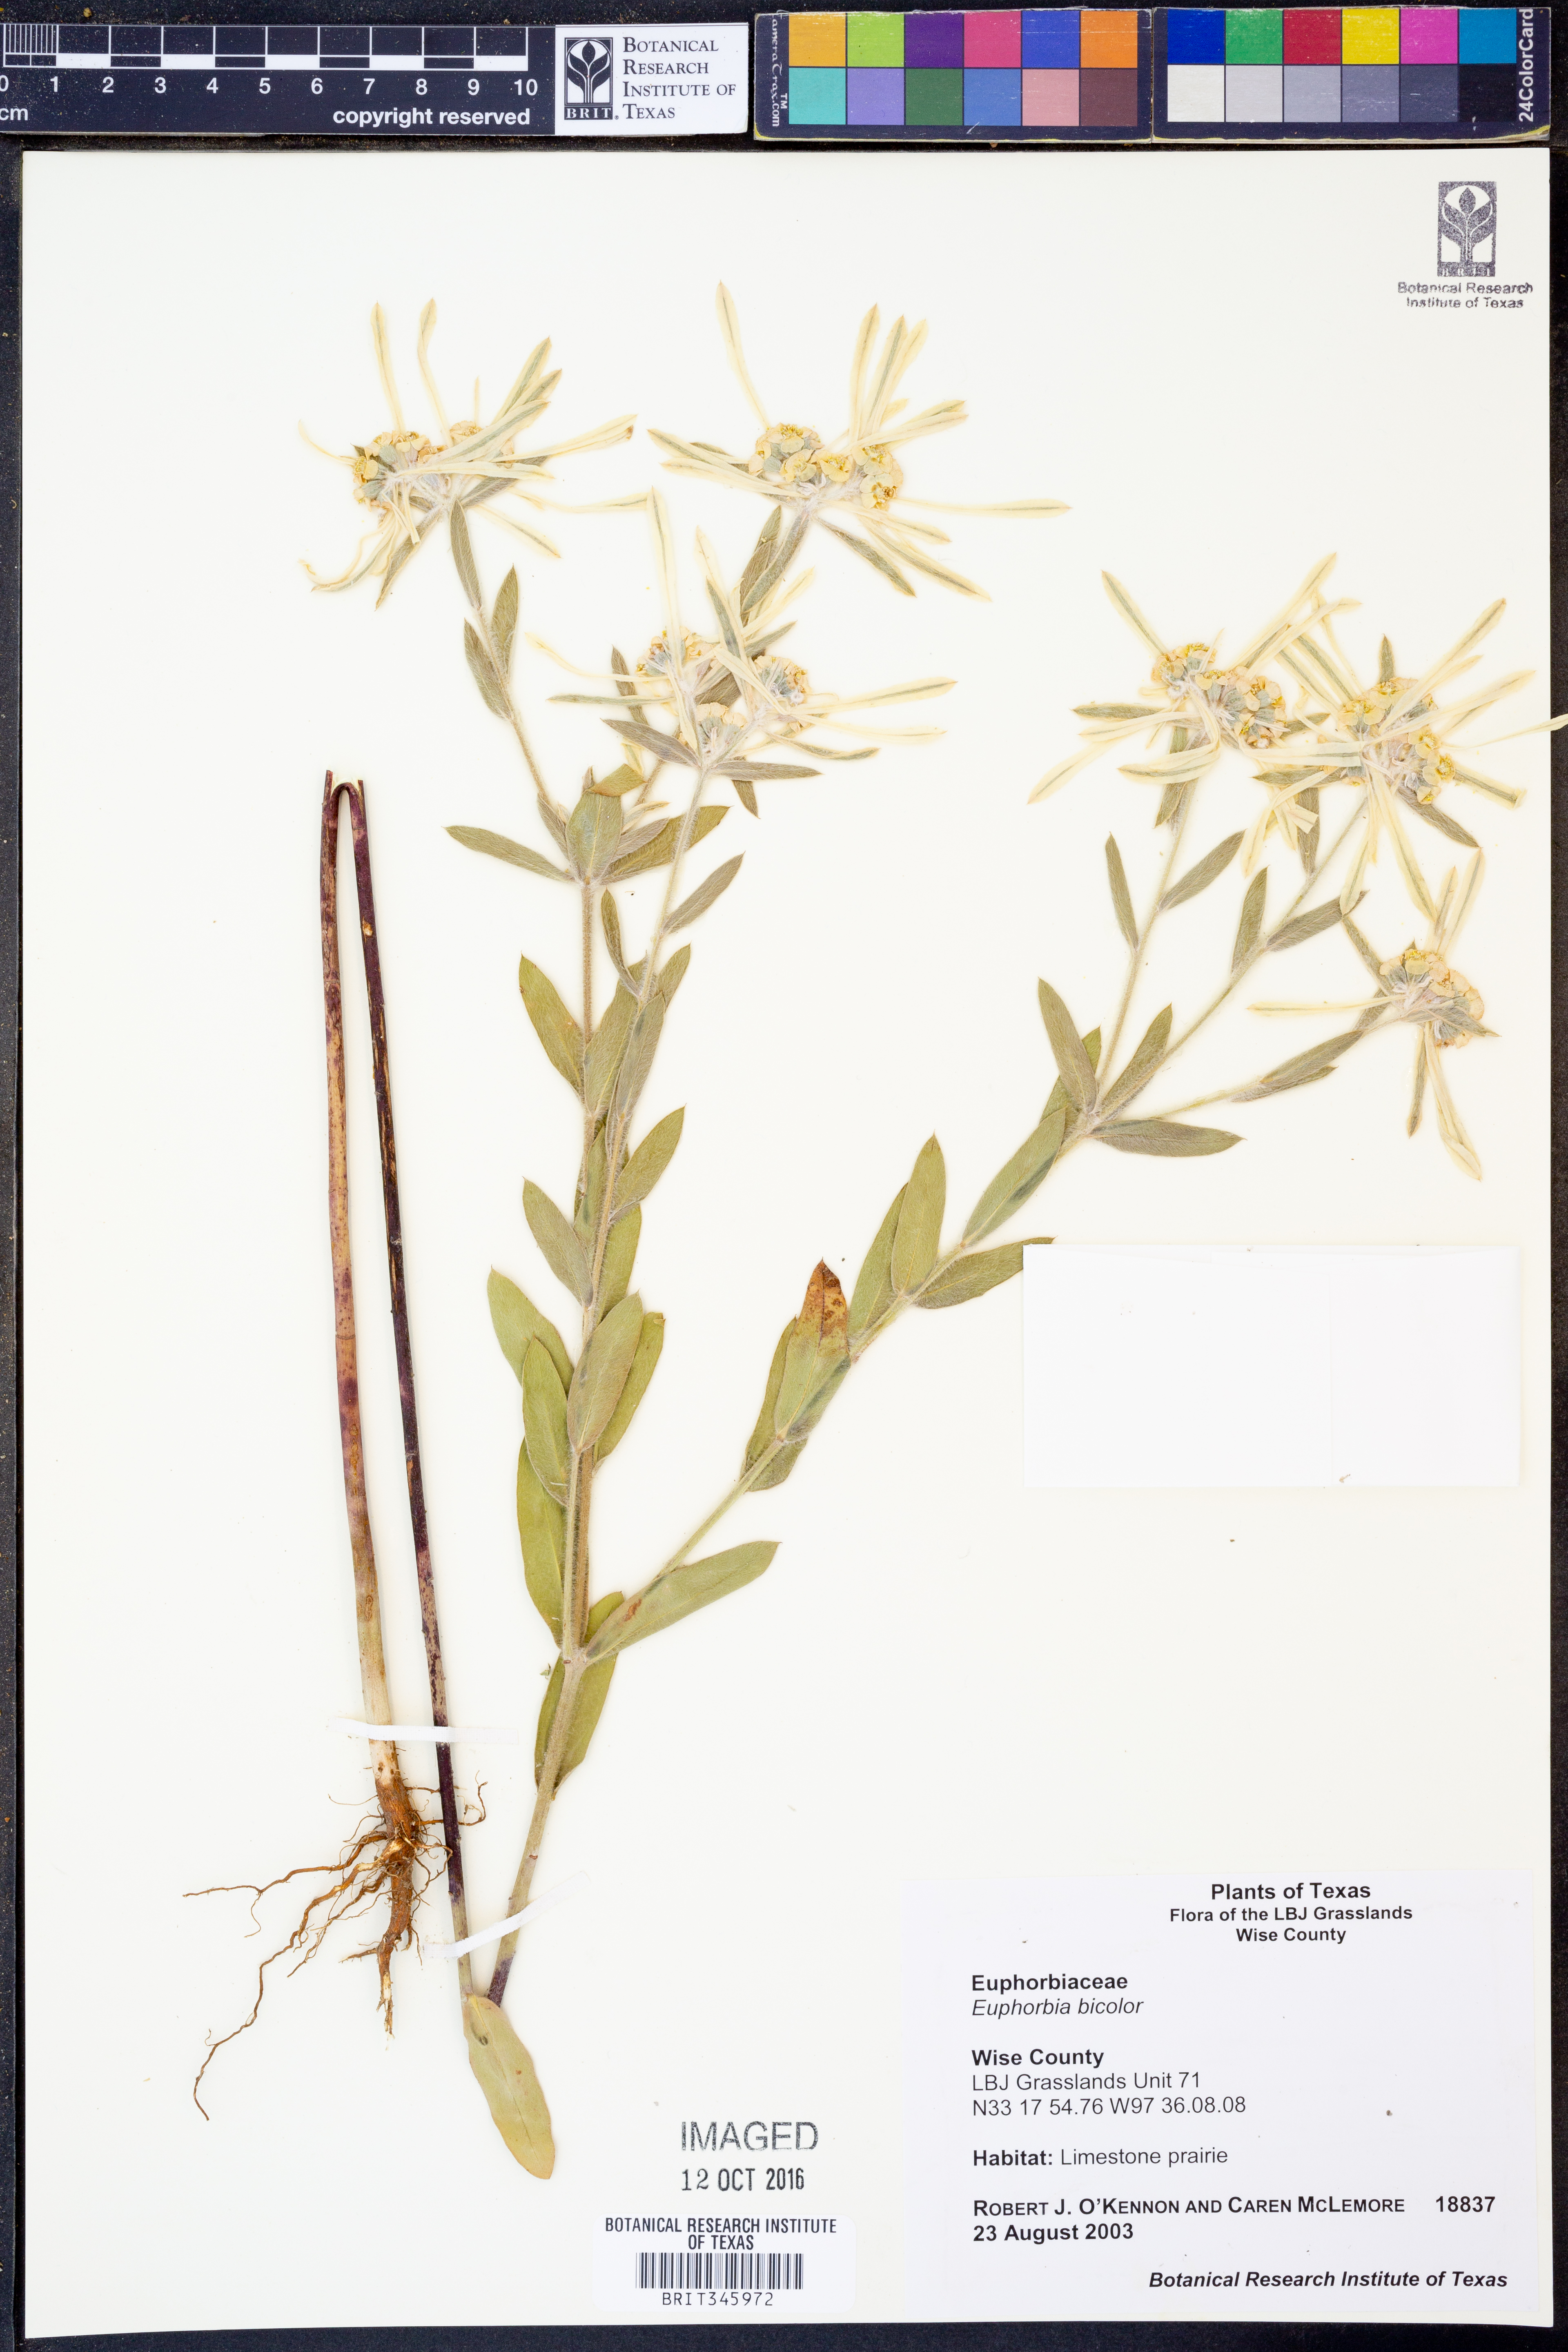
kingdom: Plantae
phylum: Tracheophyta
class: Magnoliopsida
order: Malpighiales
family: Euphorbiaceae
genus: Euphorbia
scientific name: Euphorbia bicolor
